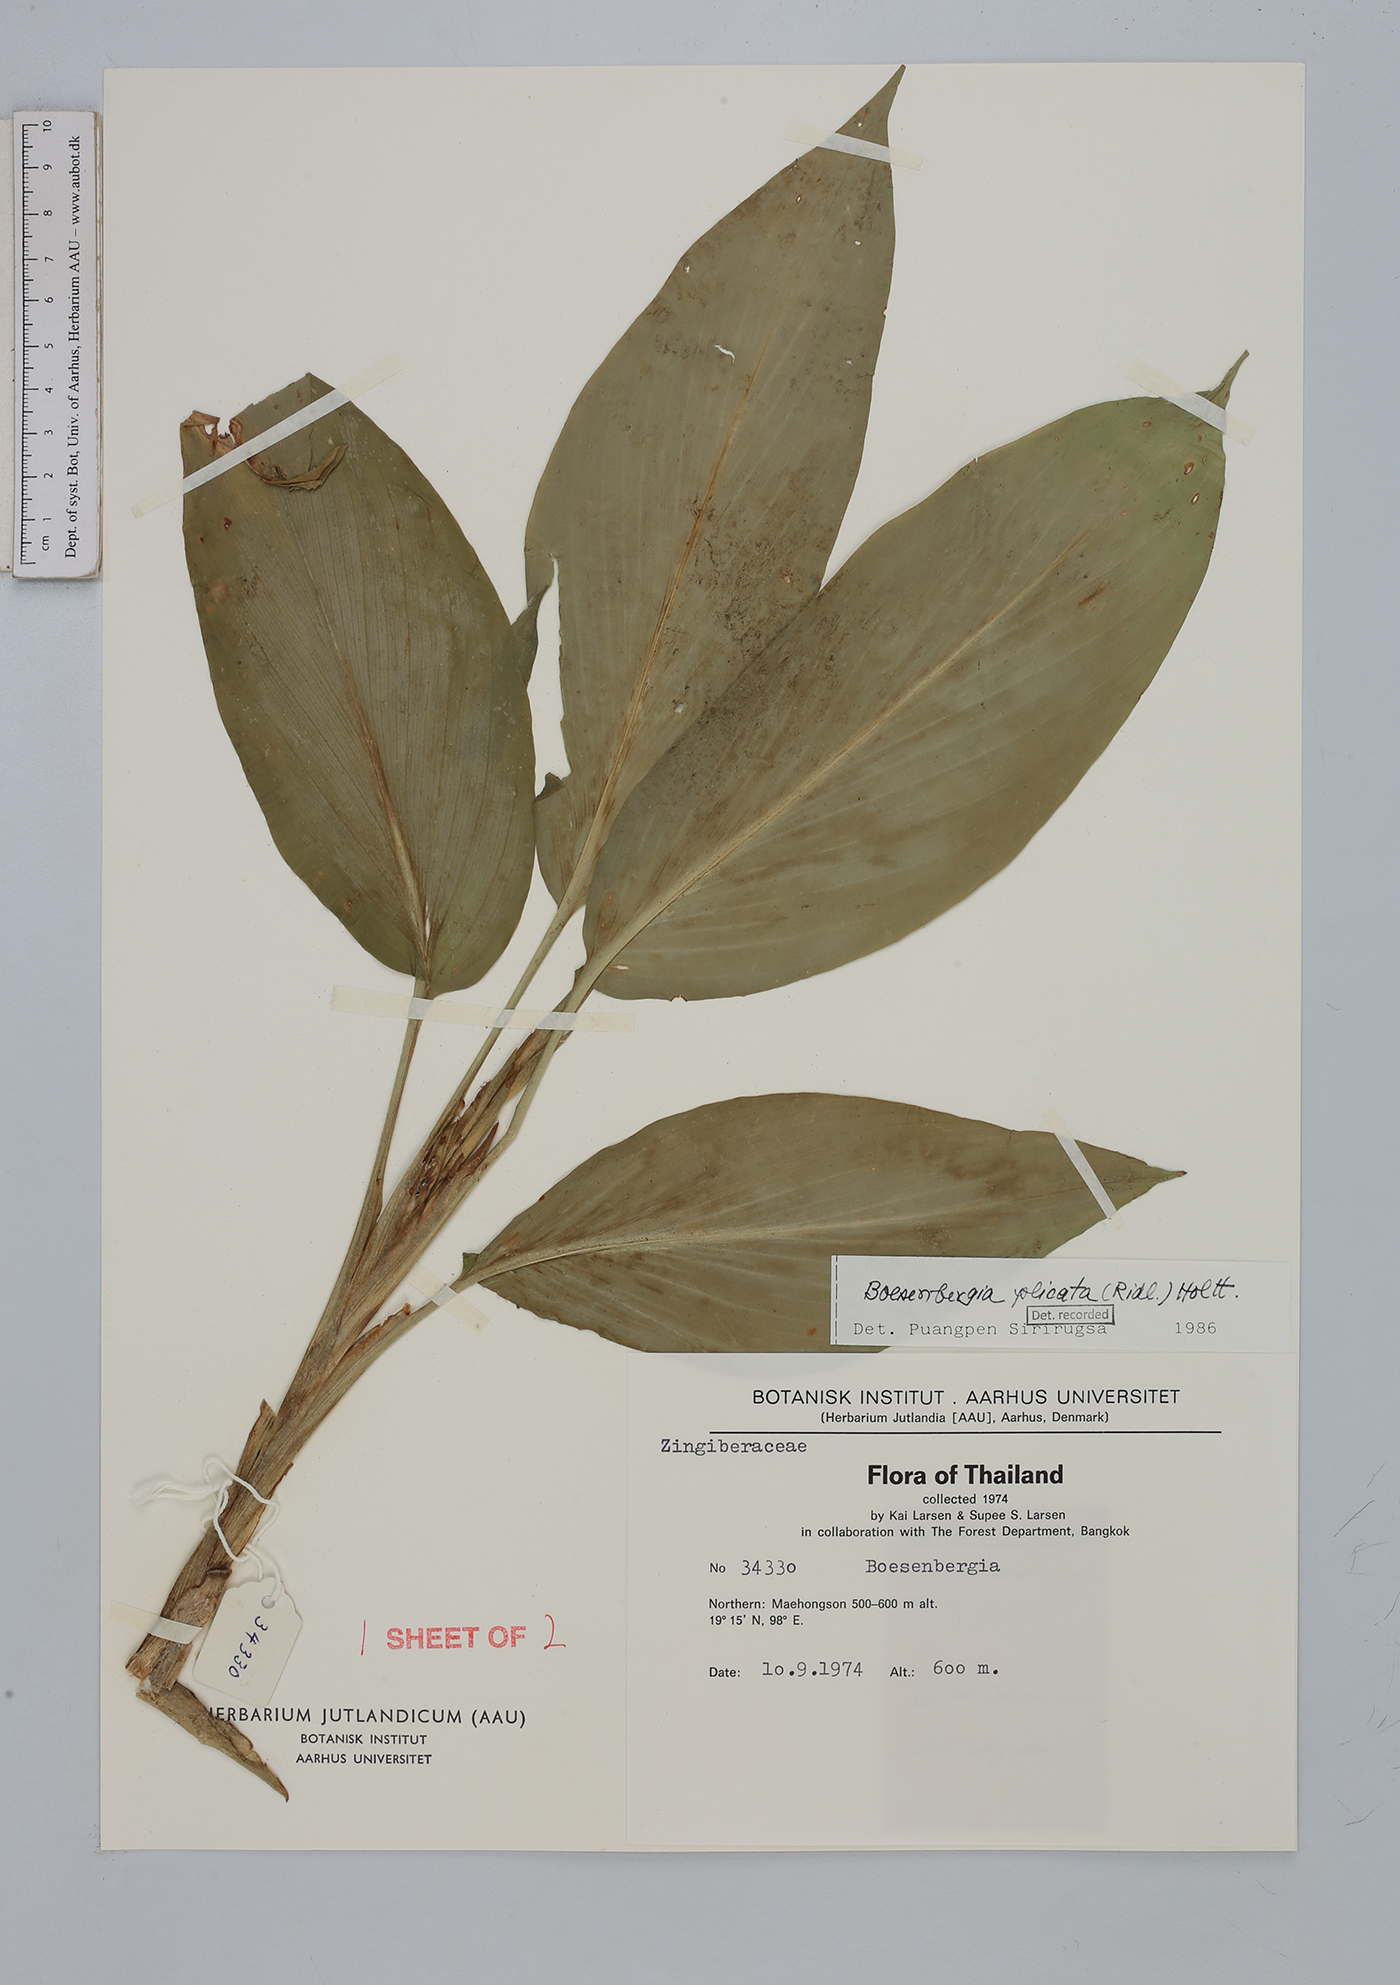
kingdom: Plantae
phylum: Tracheophyta
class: Liliopsida
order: Zingiberales
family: Zingiberaceae
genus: Boesenbergia
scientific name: Boesenbergia plicata
